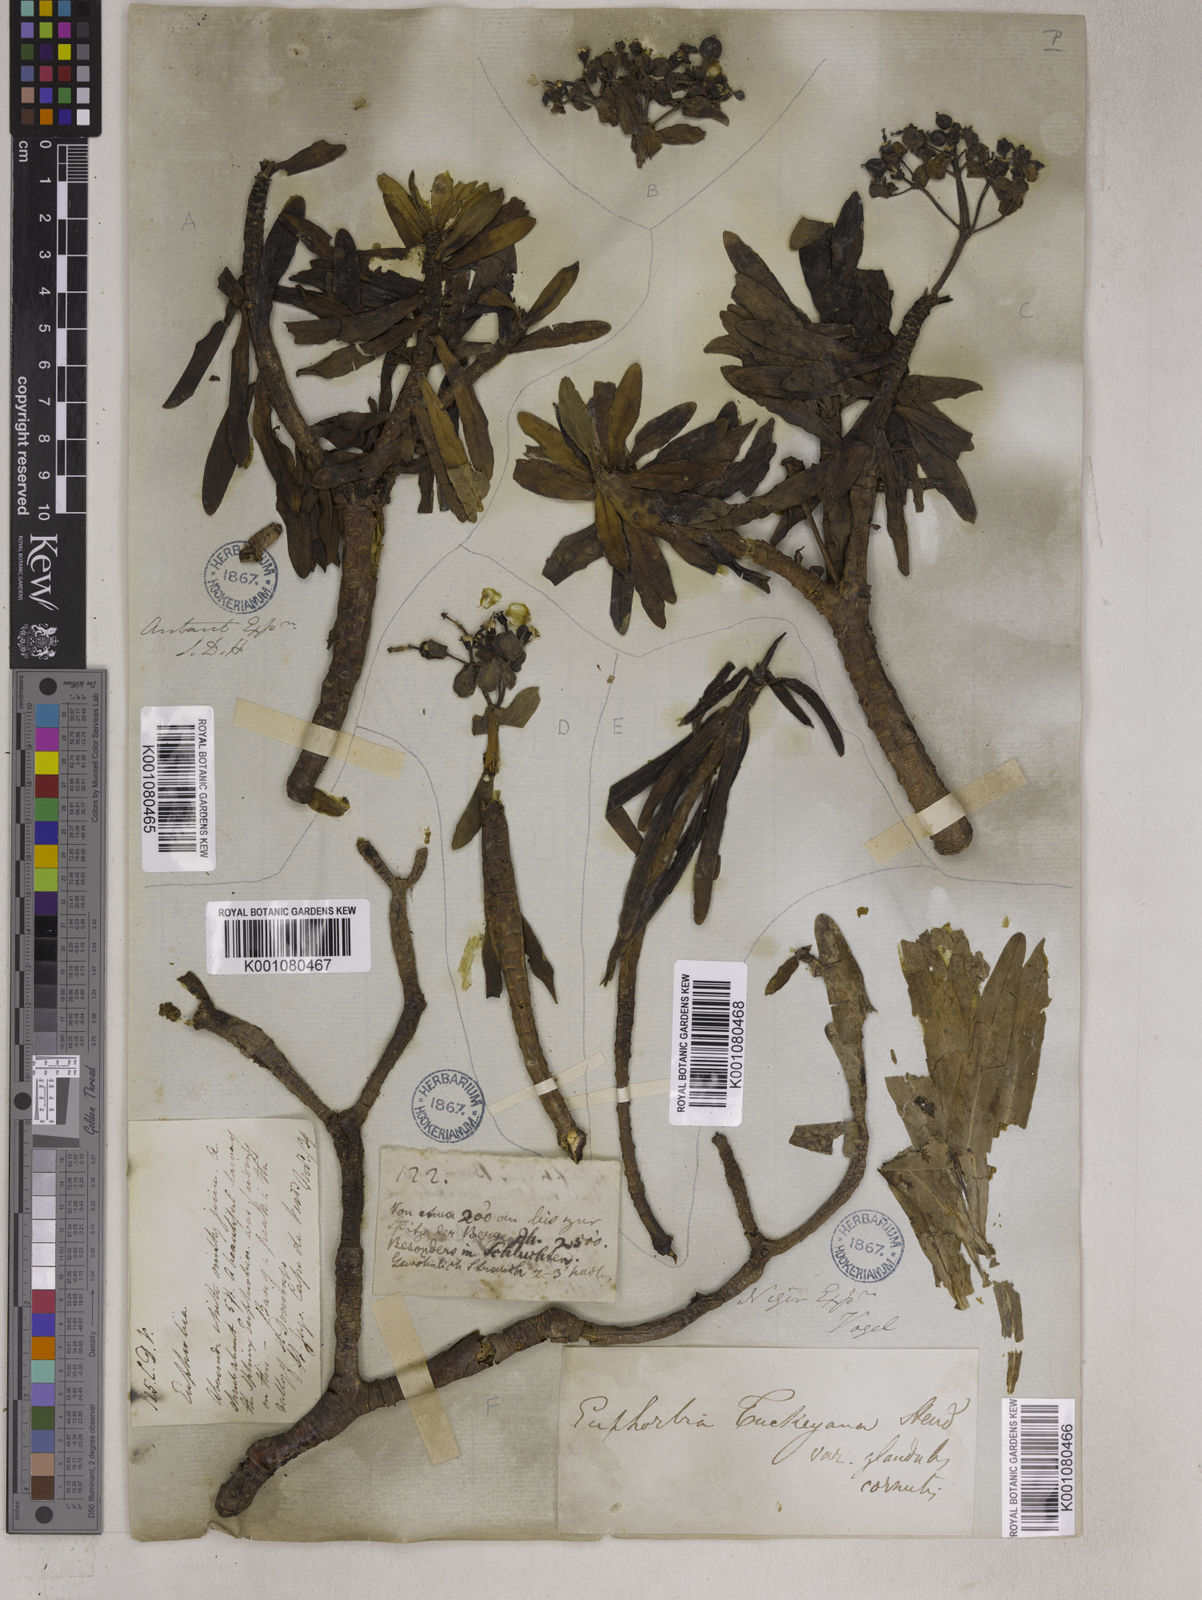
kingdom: Plantae
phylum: Tracheophyta
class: Magnoliopsida
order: Malpighiales
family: Euphorbiaceae
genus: Euphorbia
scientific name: Euphorbia
